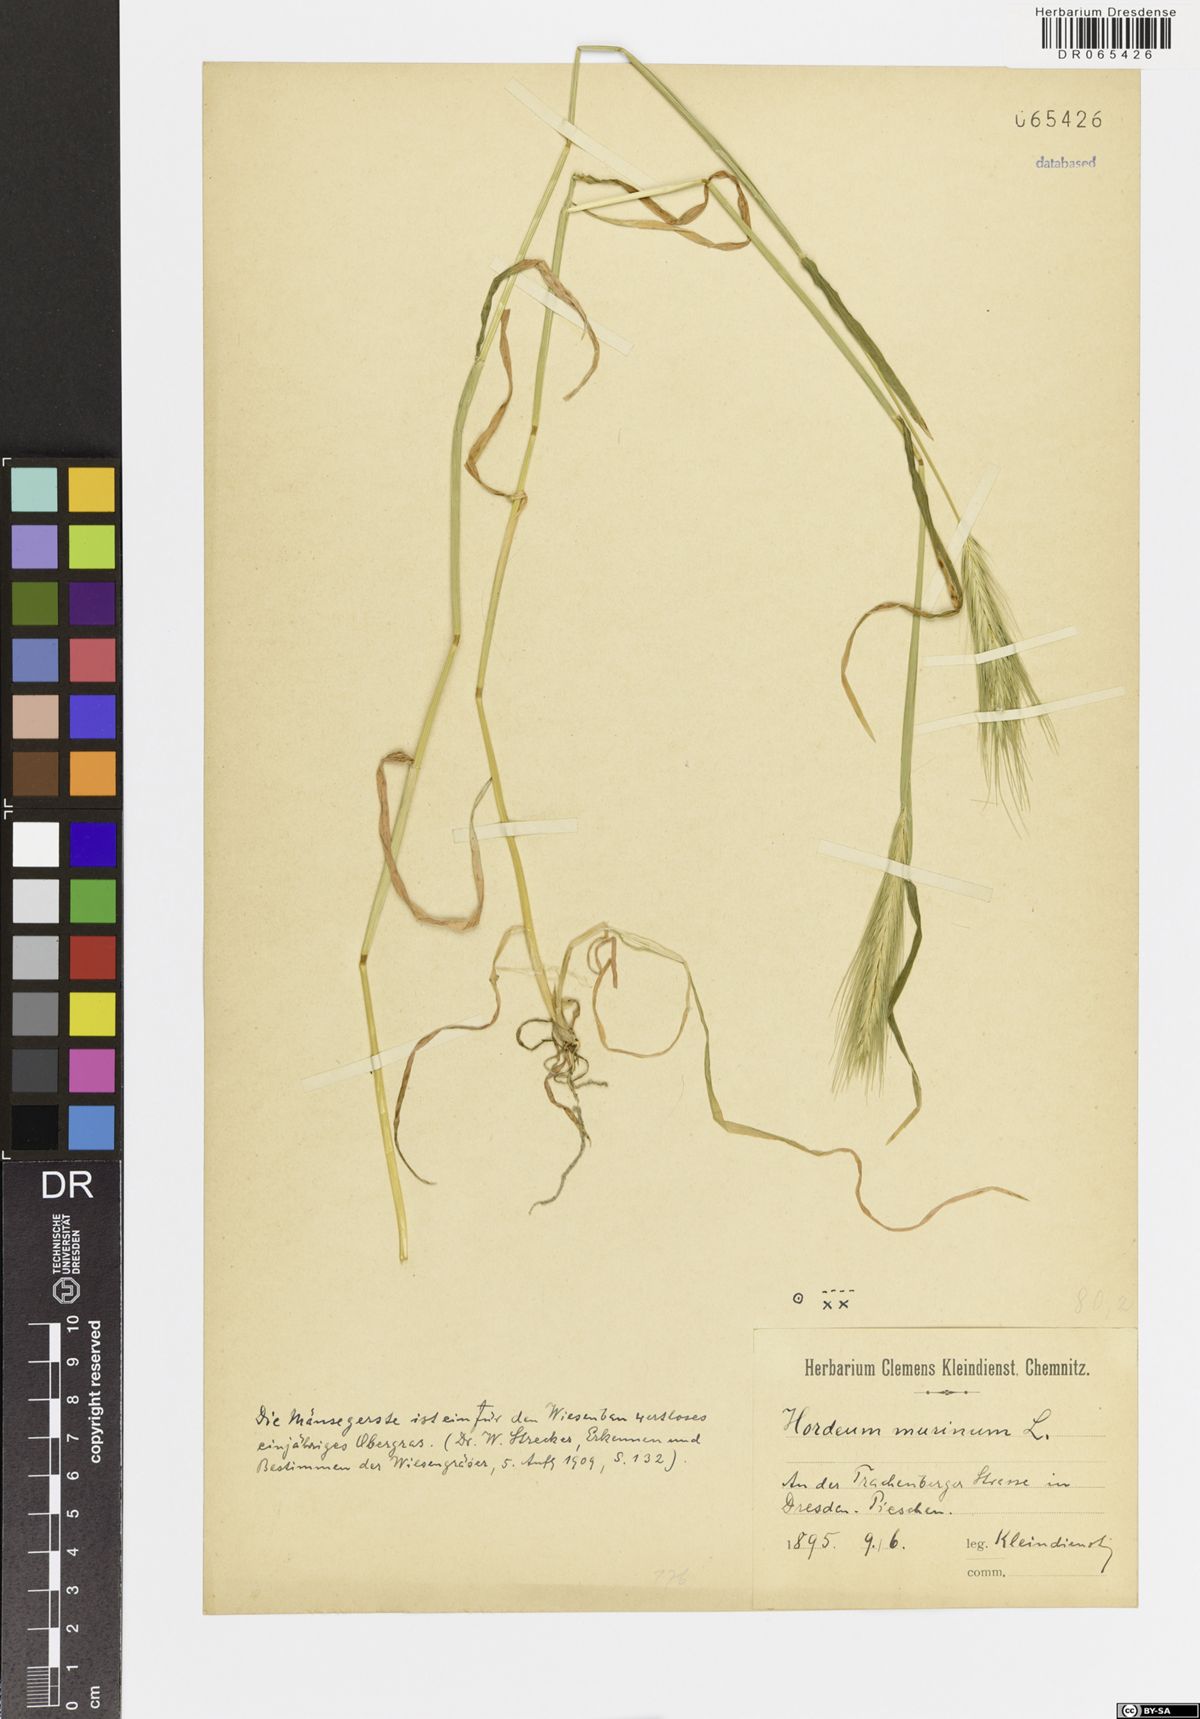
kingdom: Plantae
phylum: Tracheophyta
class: Liliopsida
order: Poales
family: Poaceae
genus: Hordeum
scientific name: Hordeum murinum
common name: Wall barley
